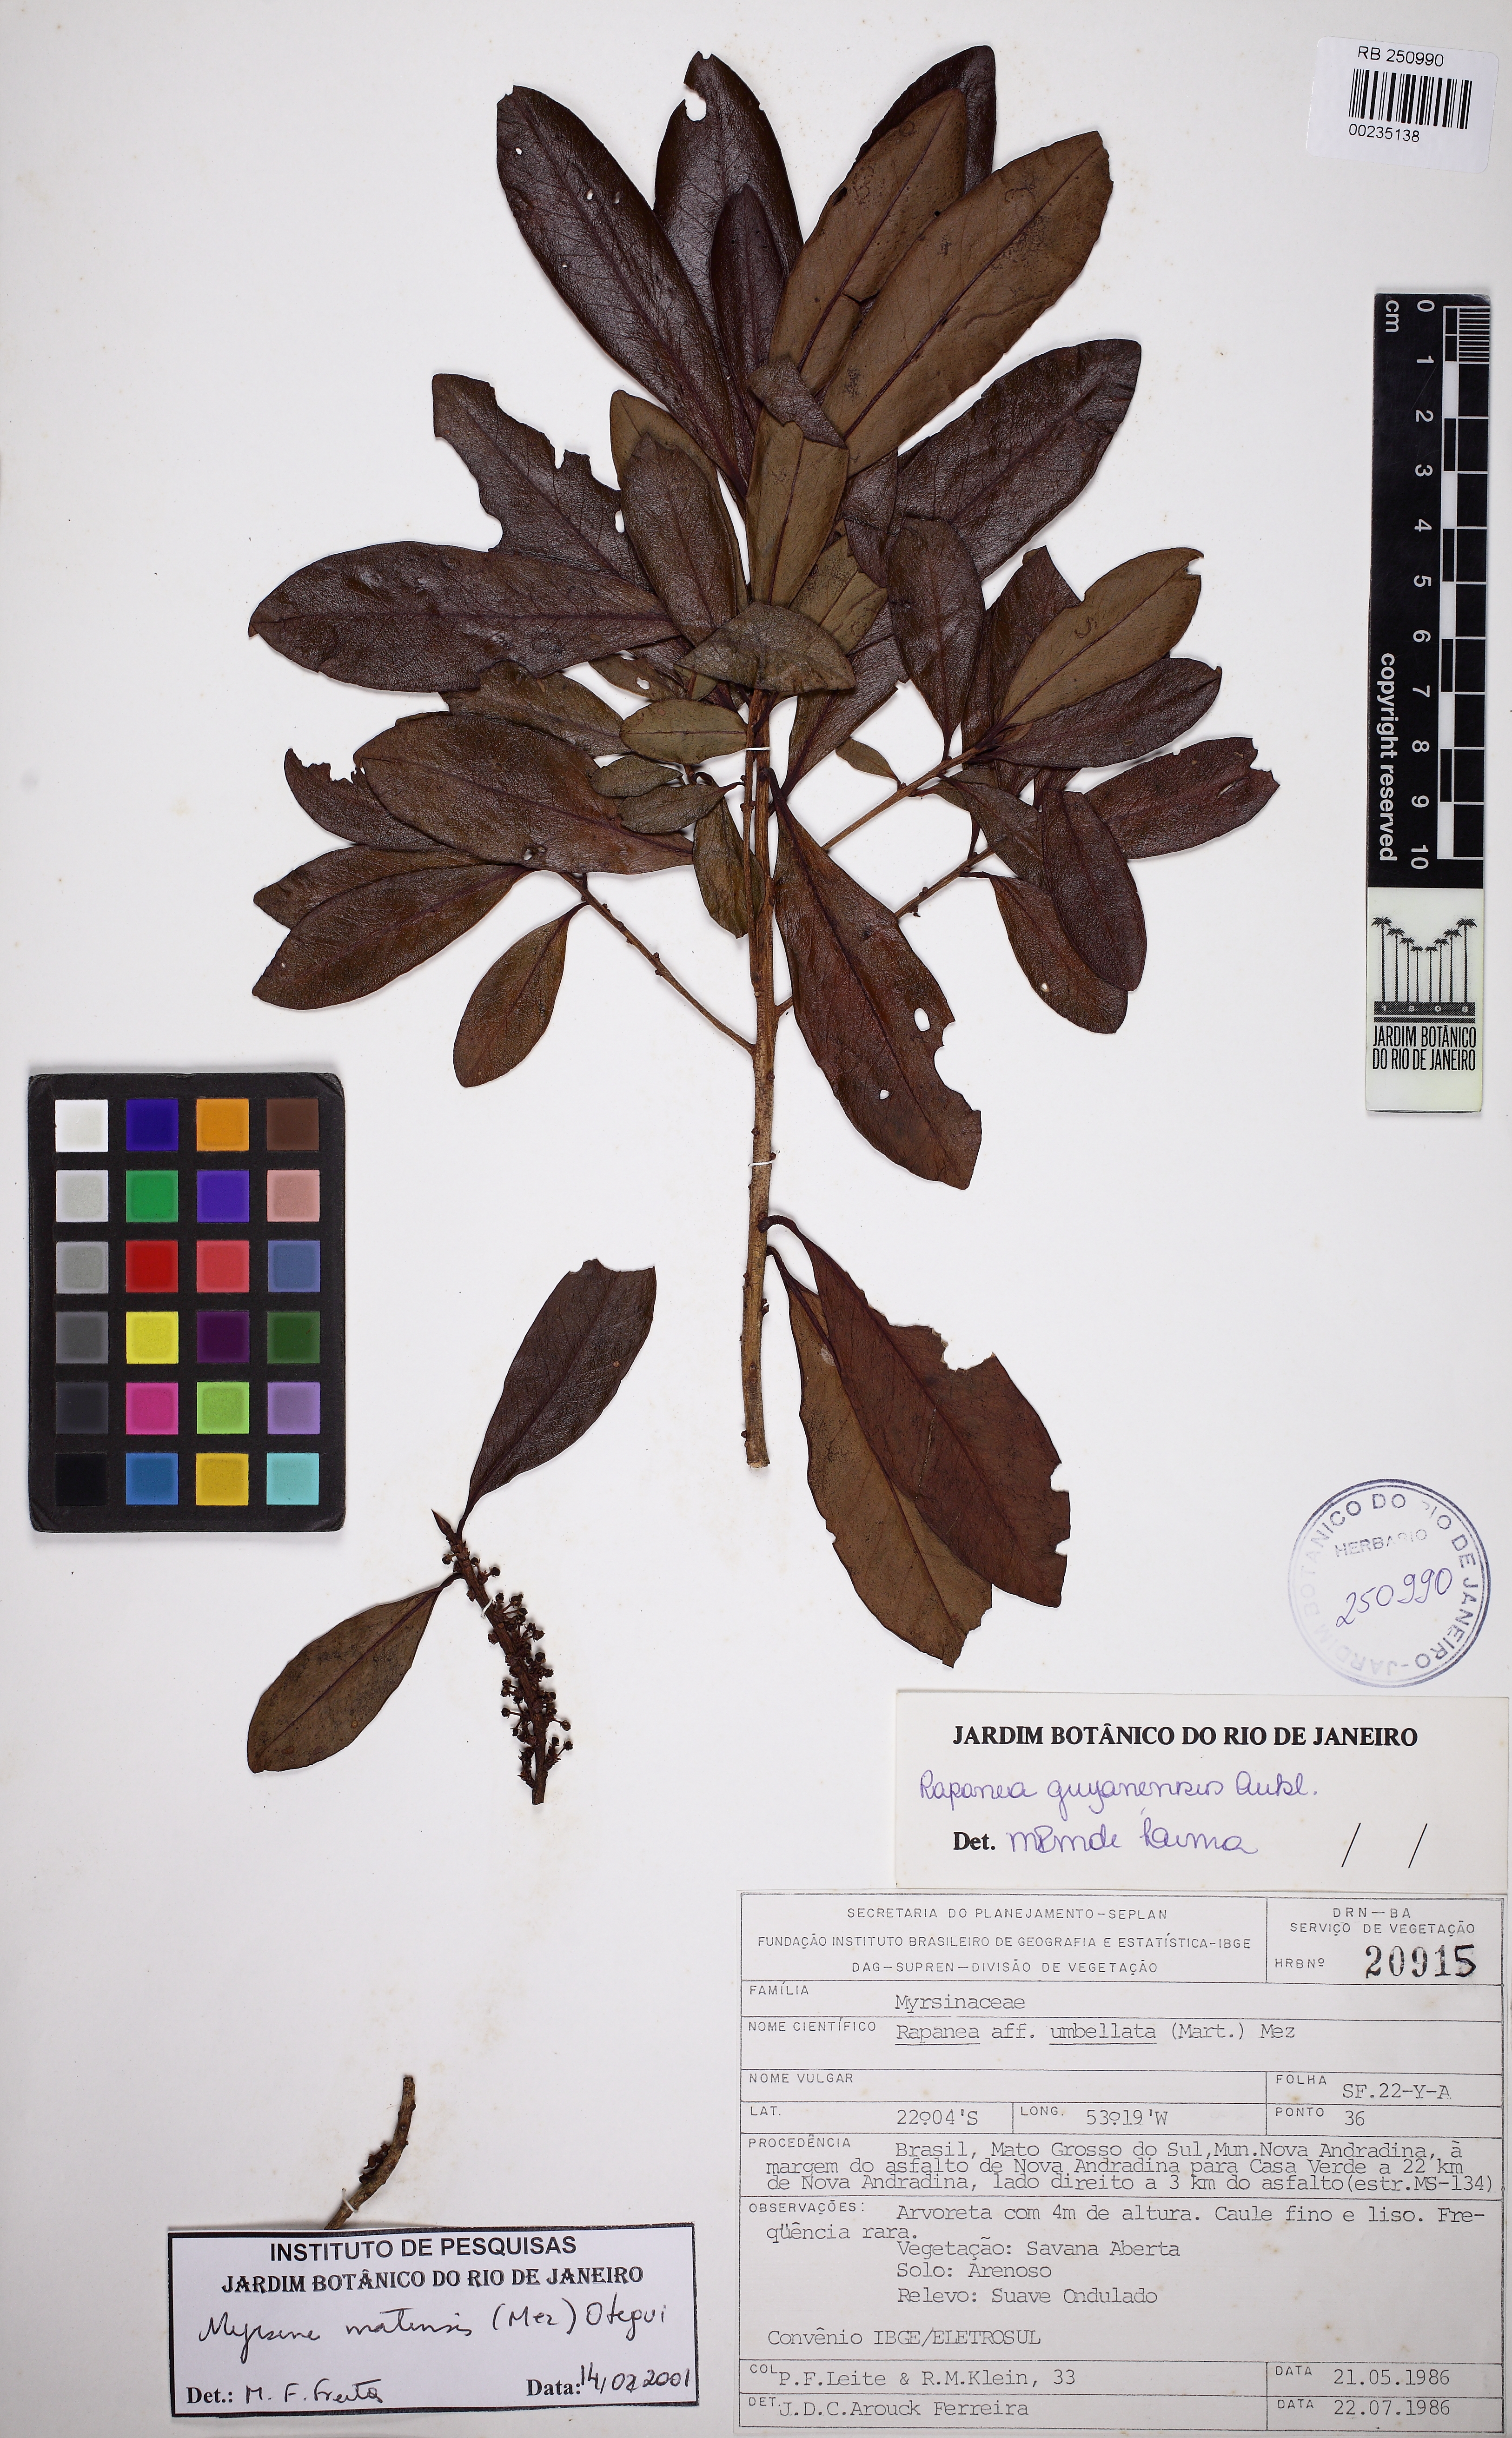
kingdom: Plantae
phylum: Tracheophyta
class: Magnoliopsida
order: Ericales
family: Primulaceae
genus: Myrsine
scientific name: Myrsine matensis
